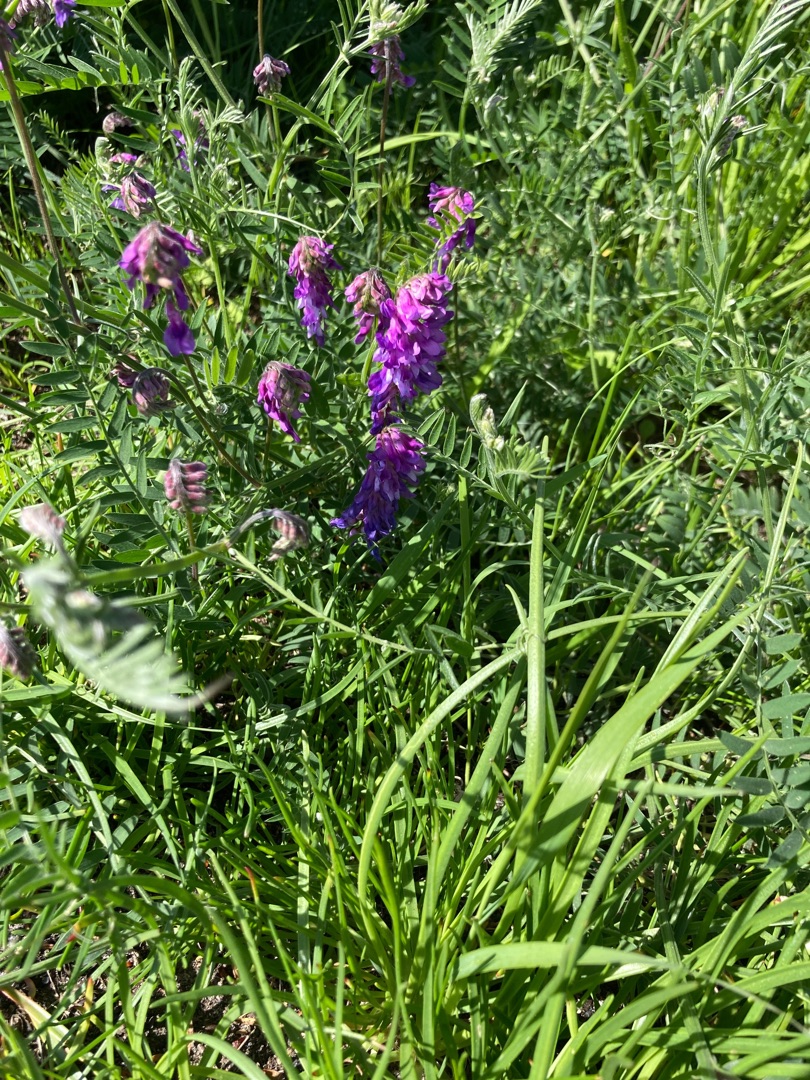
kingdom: Plantae
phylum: Tracheophyta
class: Magnoliopsida
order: Fabales
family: Fabaceae
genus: Vicia
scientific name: Vicia cracca
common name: Muse-vikke
